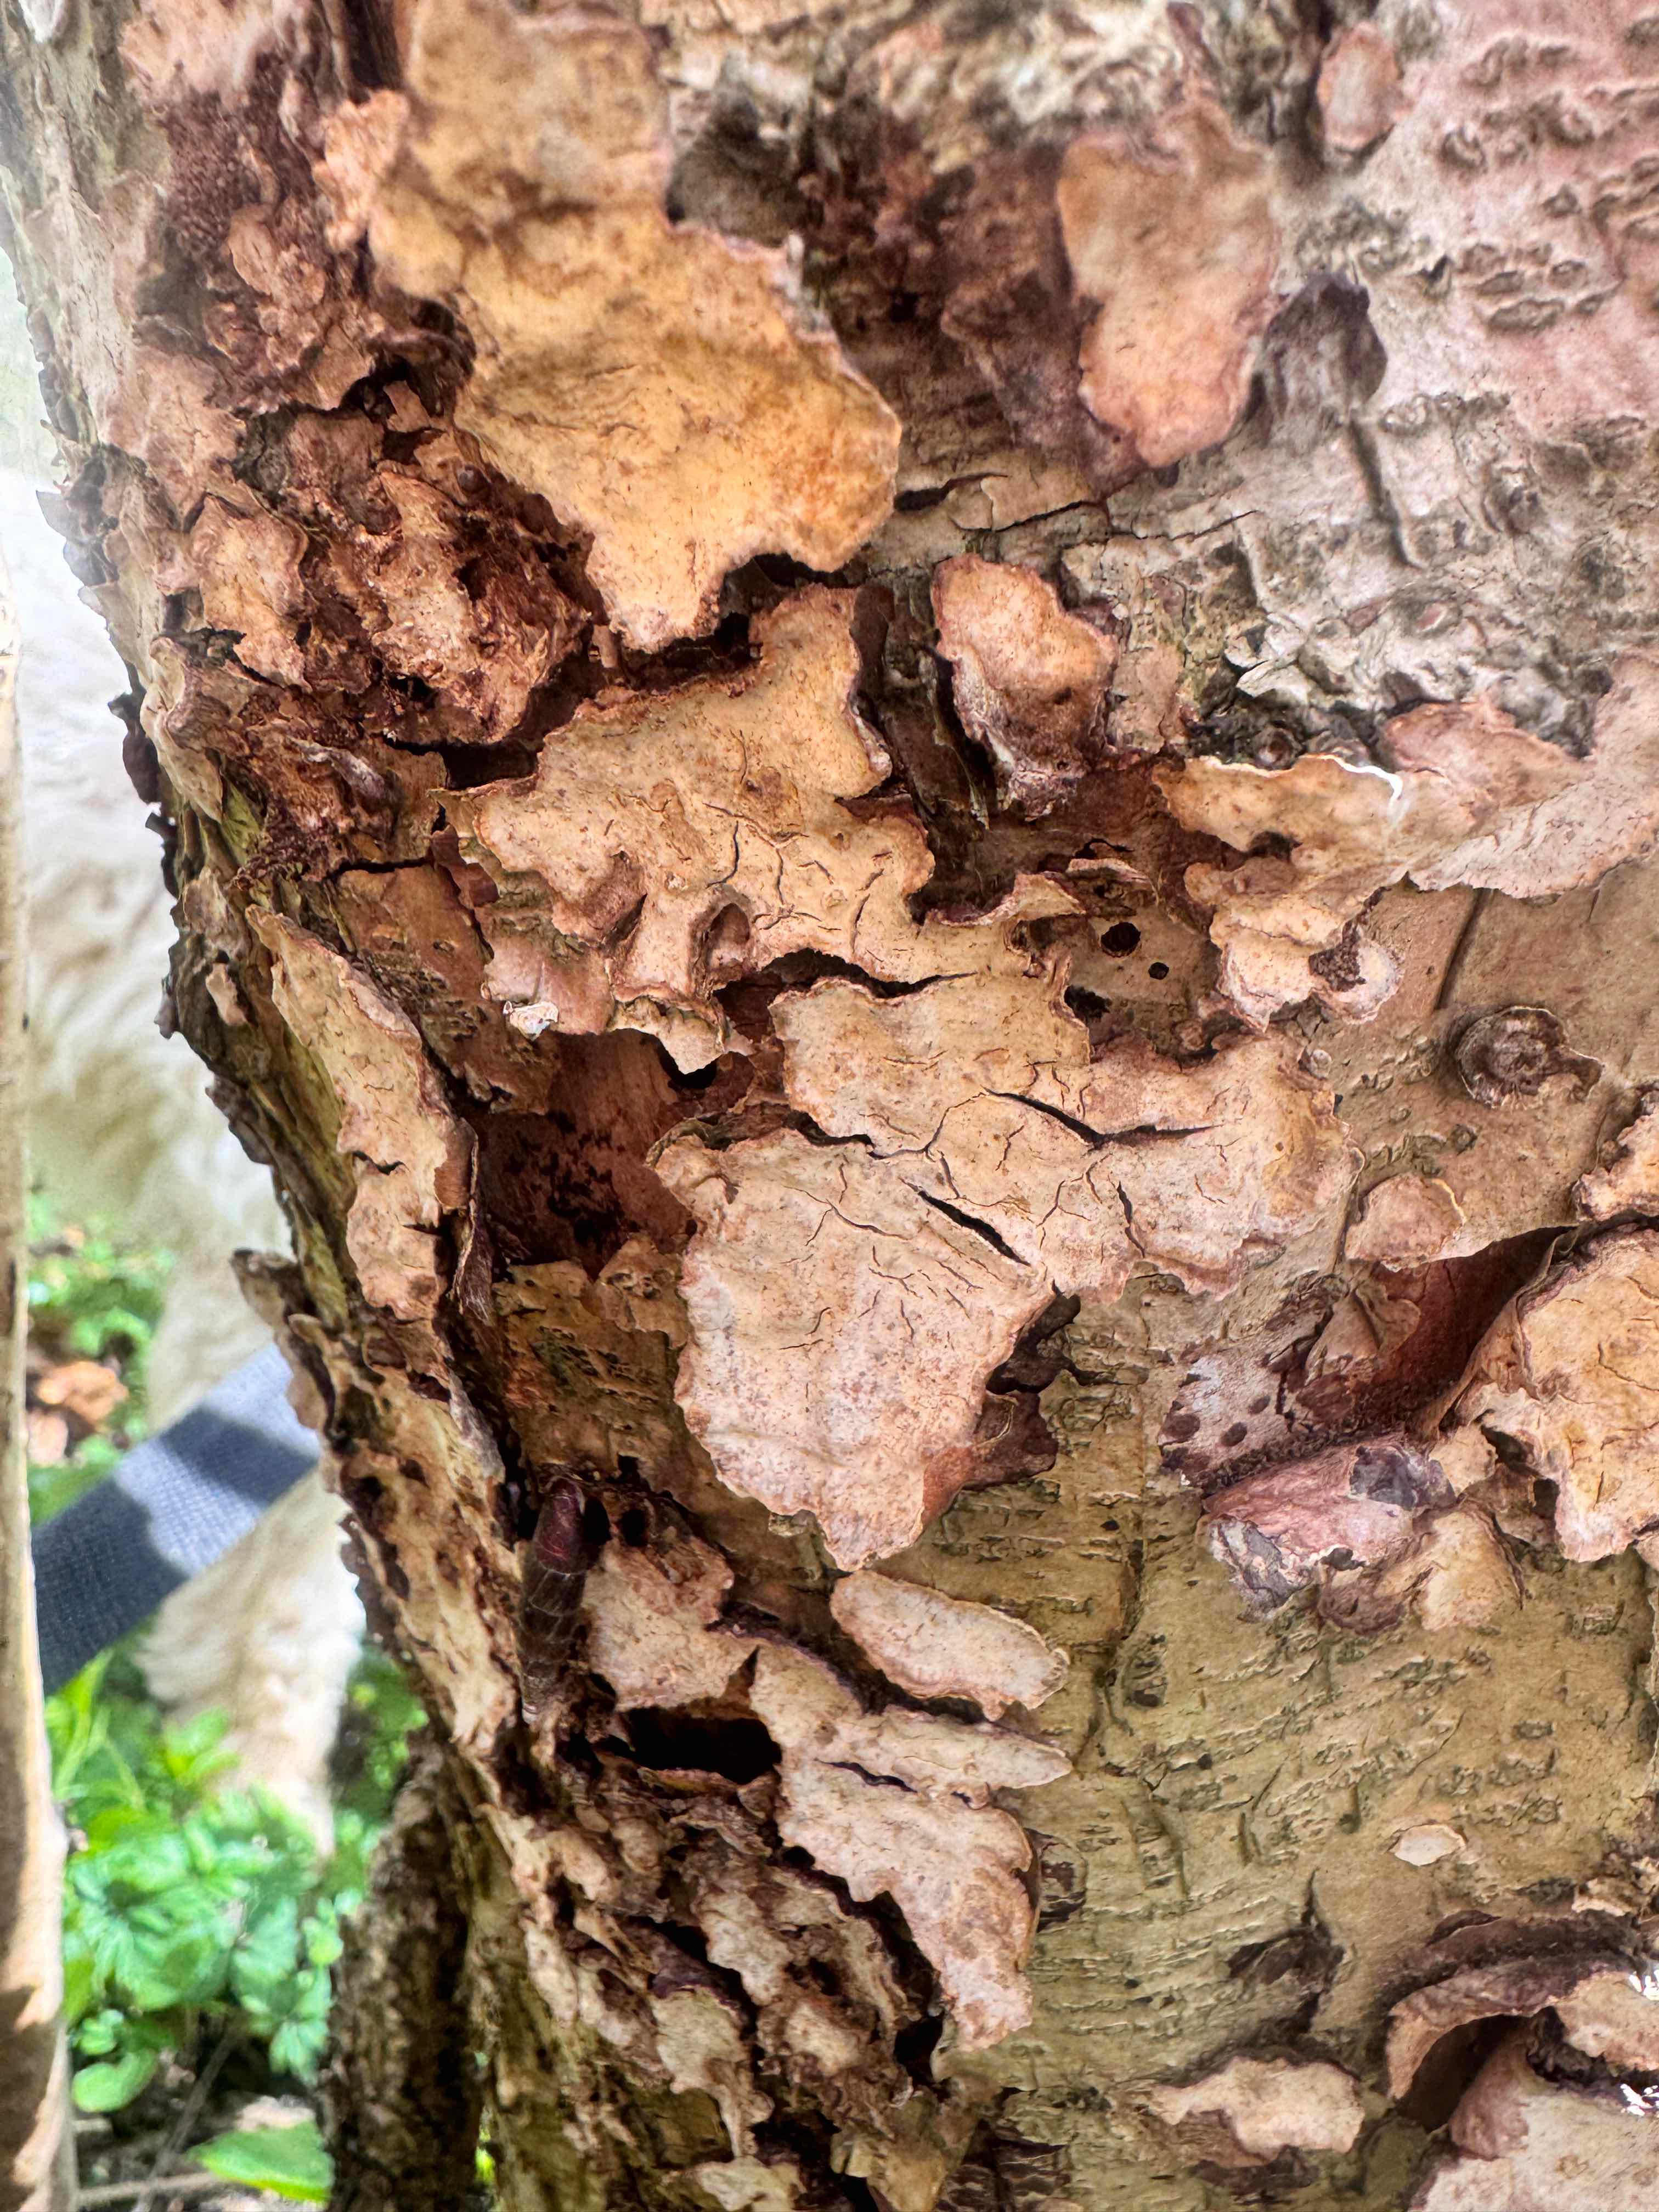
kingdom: Fungi
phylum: Basidiomycota
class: Agaricomycetes
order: Russulales
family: Stereaceae
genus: Stereum
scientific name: Stereum rugosum
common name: rynket lædersvamp
